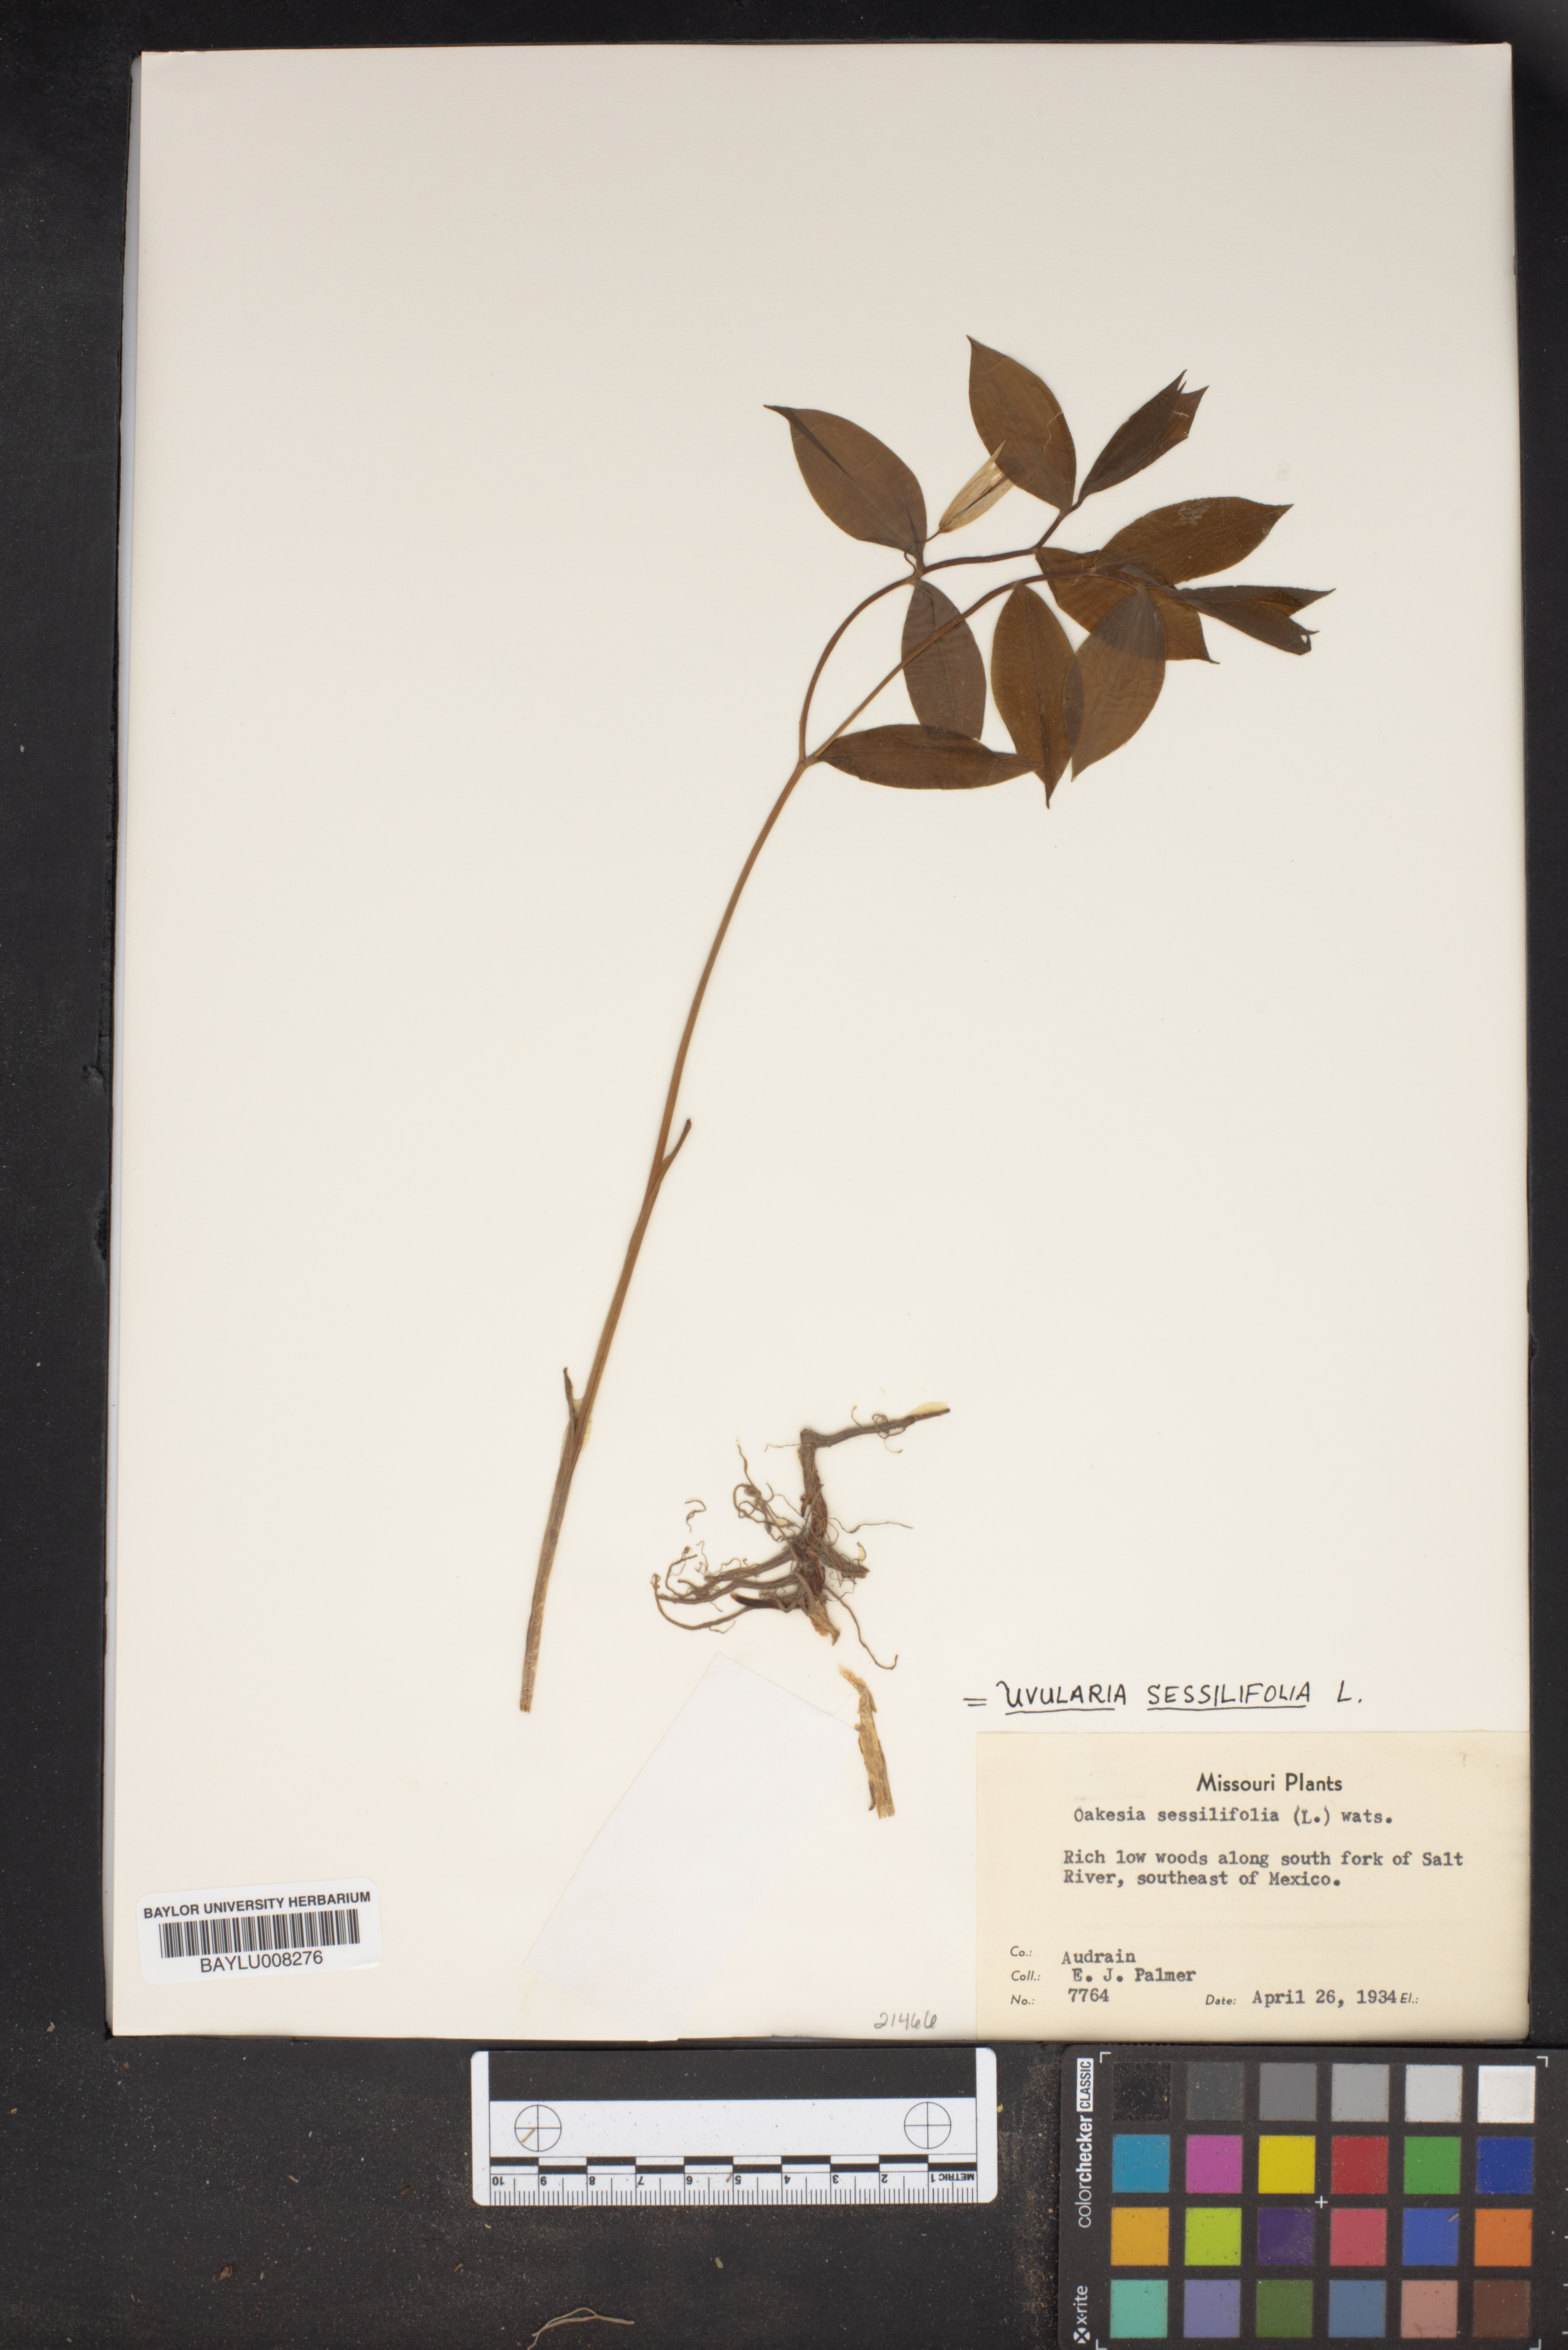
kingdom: Plantae
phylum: Tracheophyta
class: Liliopsida
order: Liliales
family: Colchicaceae
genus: Uvularia
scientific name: Uvularia sessilifolia
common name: Straw-lily
